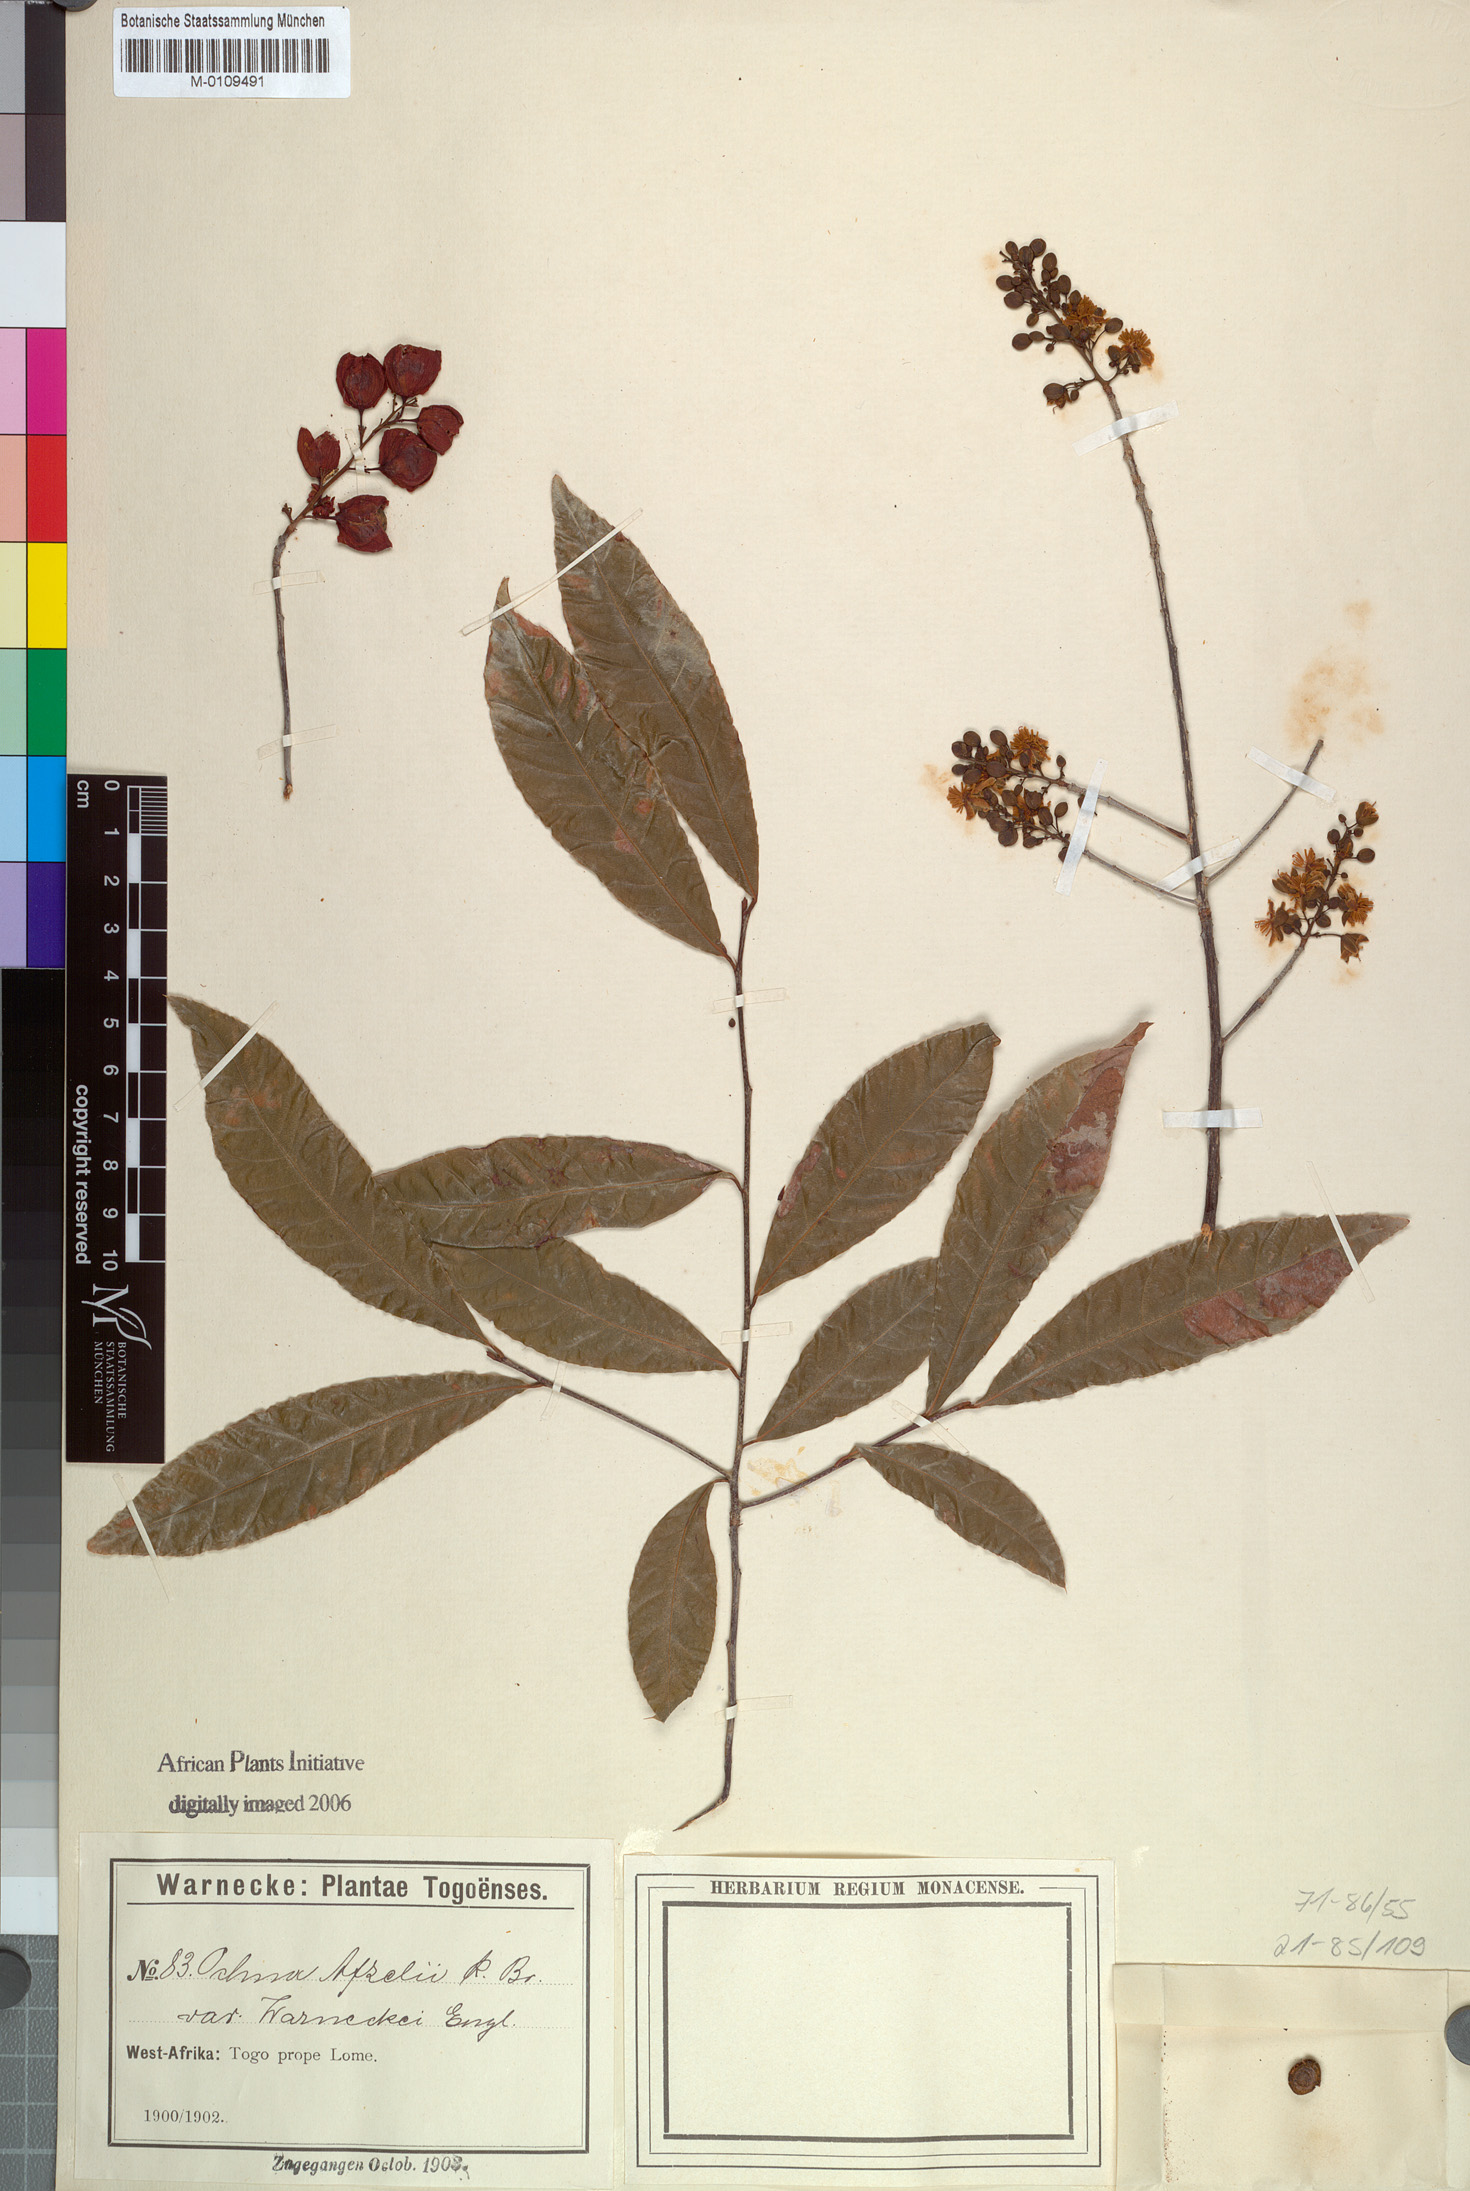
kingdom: Plantae
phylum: Tracheophyta
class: Magnoliopsida
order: Malpighiales
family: Ochnaceae
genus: Ochna
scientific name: Ochna afzelii
